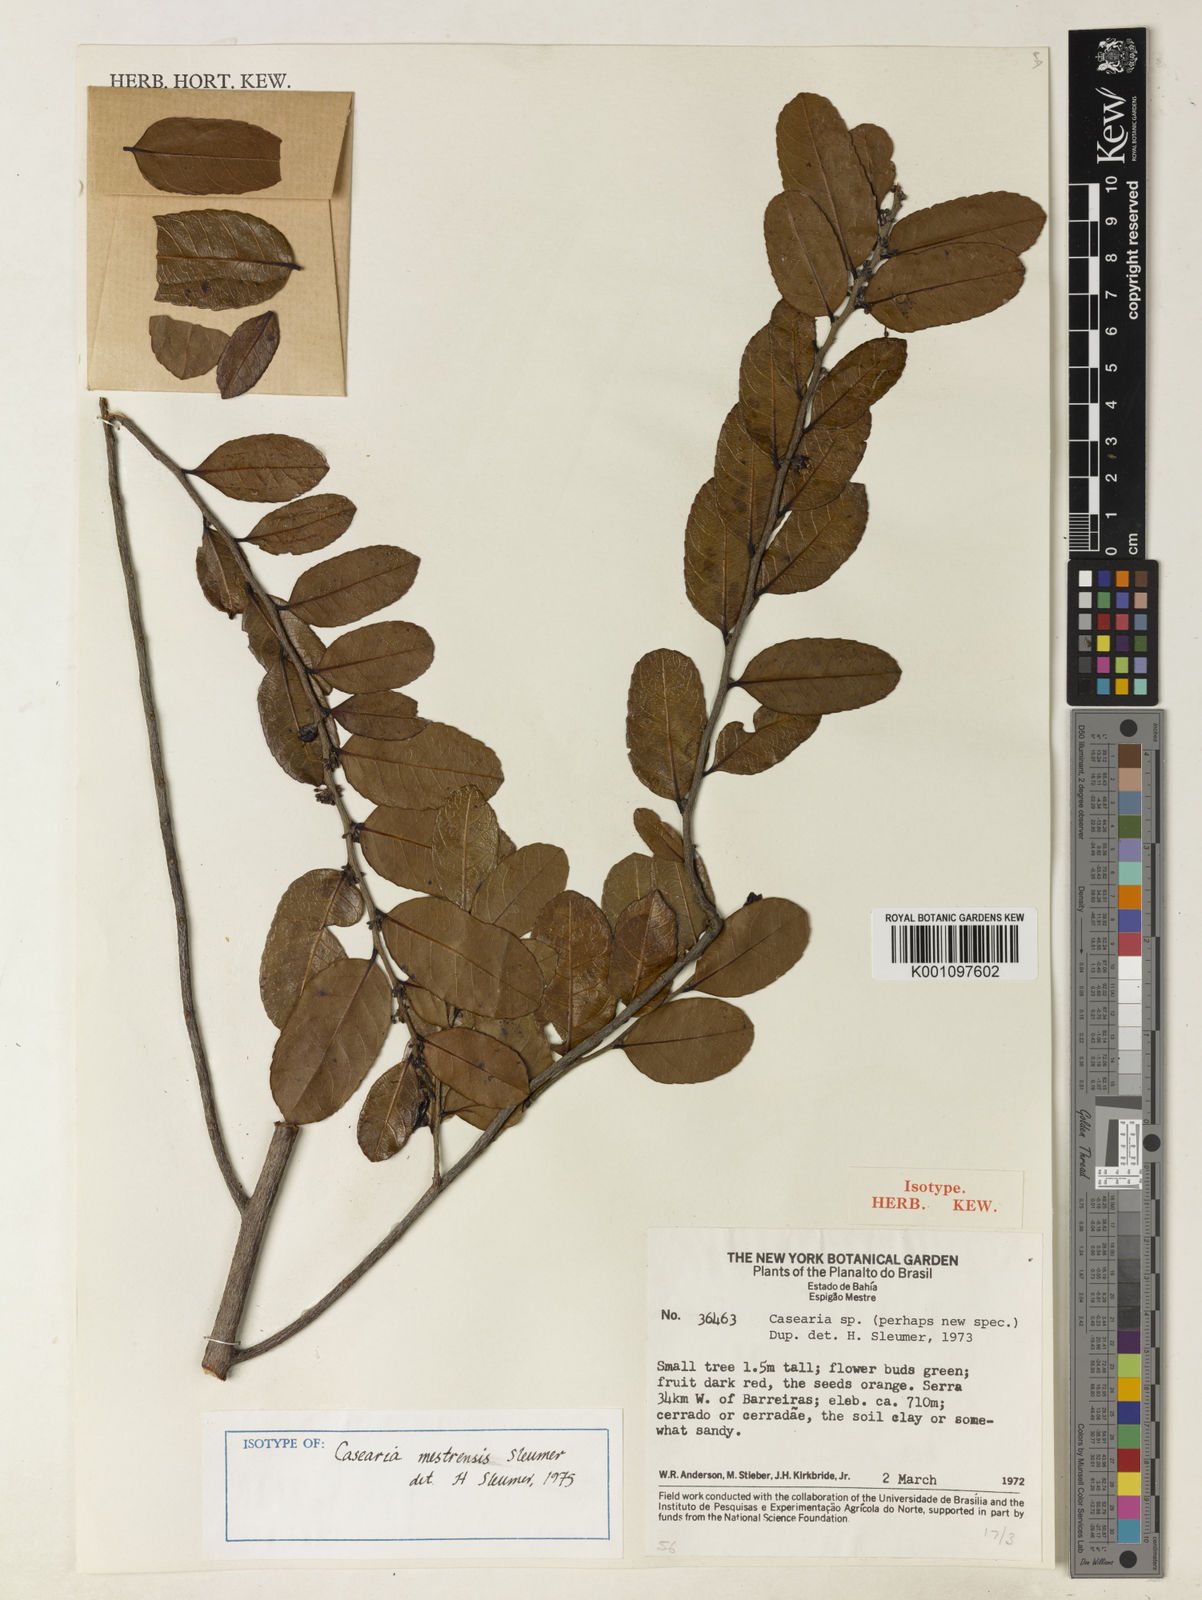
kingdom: Plantae
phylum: Tracheophyta
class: Magnoliopsida
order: Malpighiales
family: Salicaceae
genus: Casearia
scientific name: Casearia mestrensis
